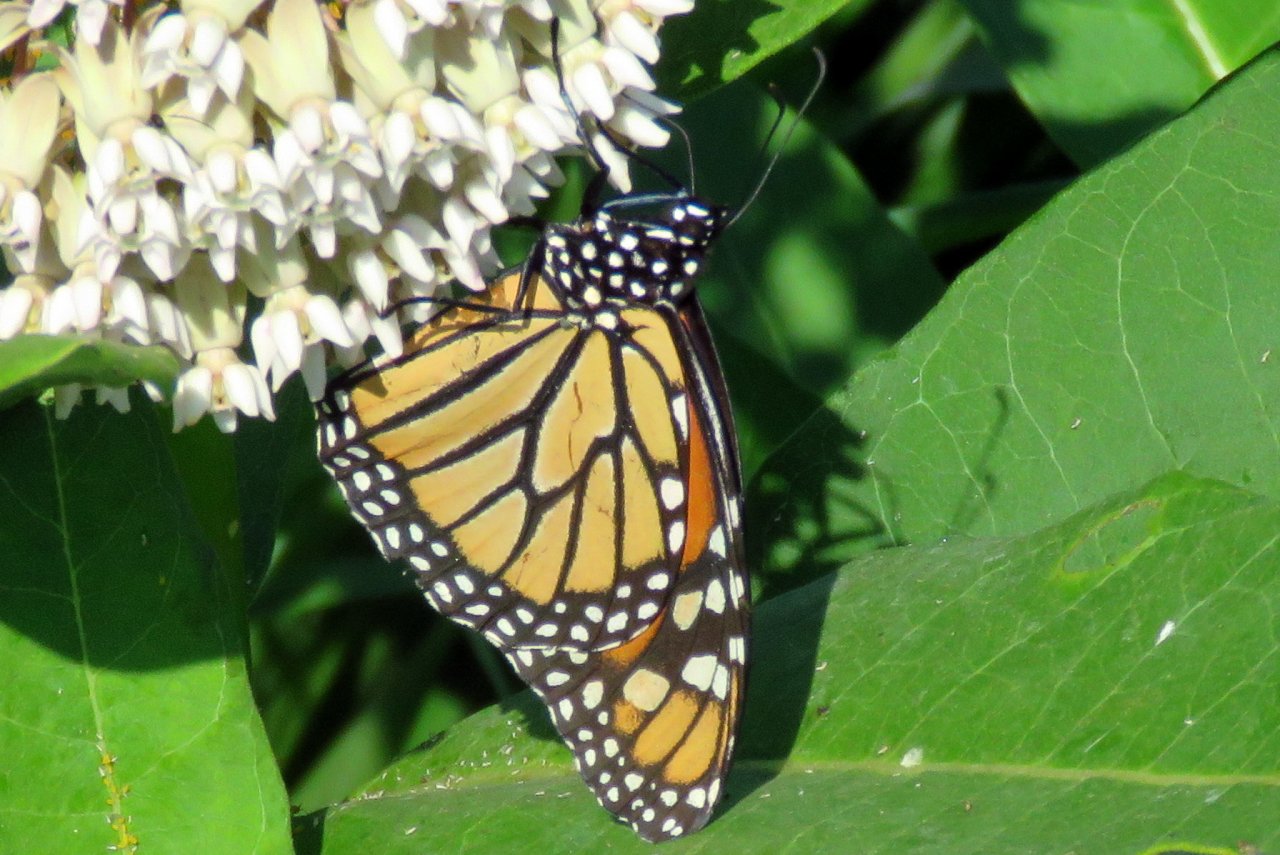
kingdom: Animalia
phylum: Arthropoda
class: Insecta
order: Lepidoptera
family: Nymphalidae
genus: Danaus
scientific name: Danaus plexippus
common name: Monarch
